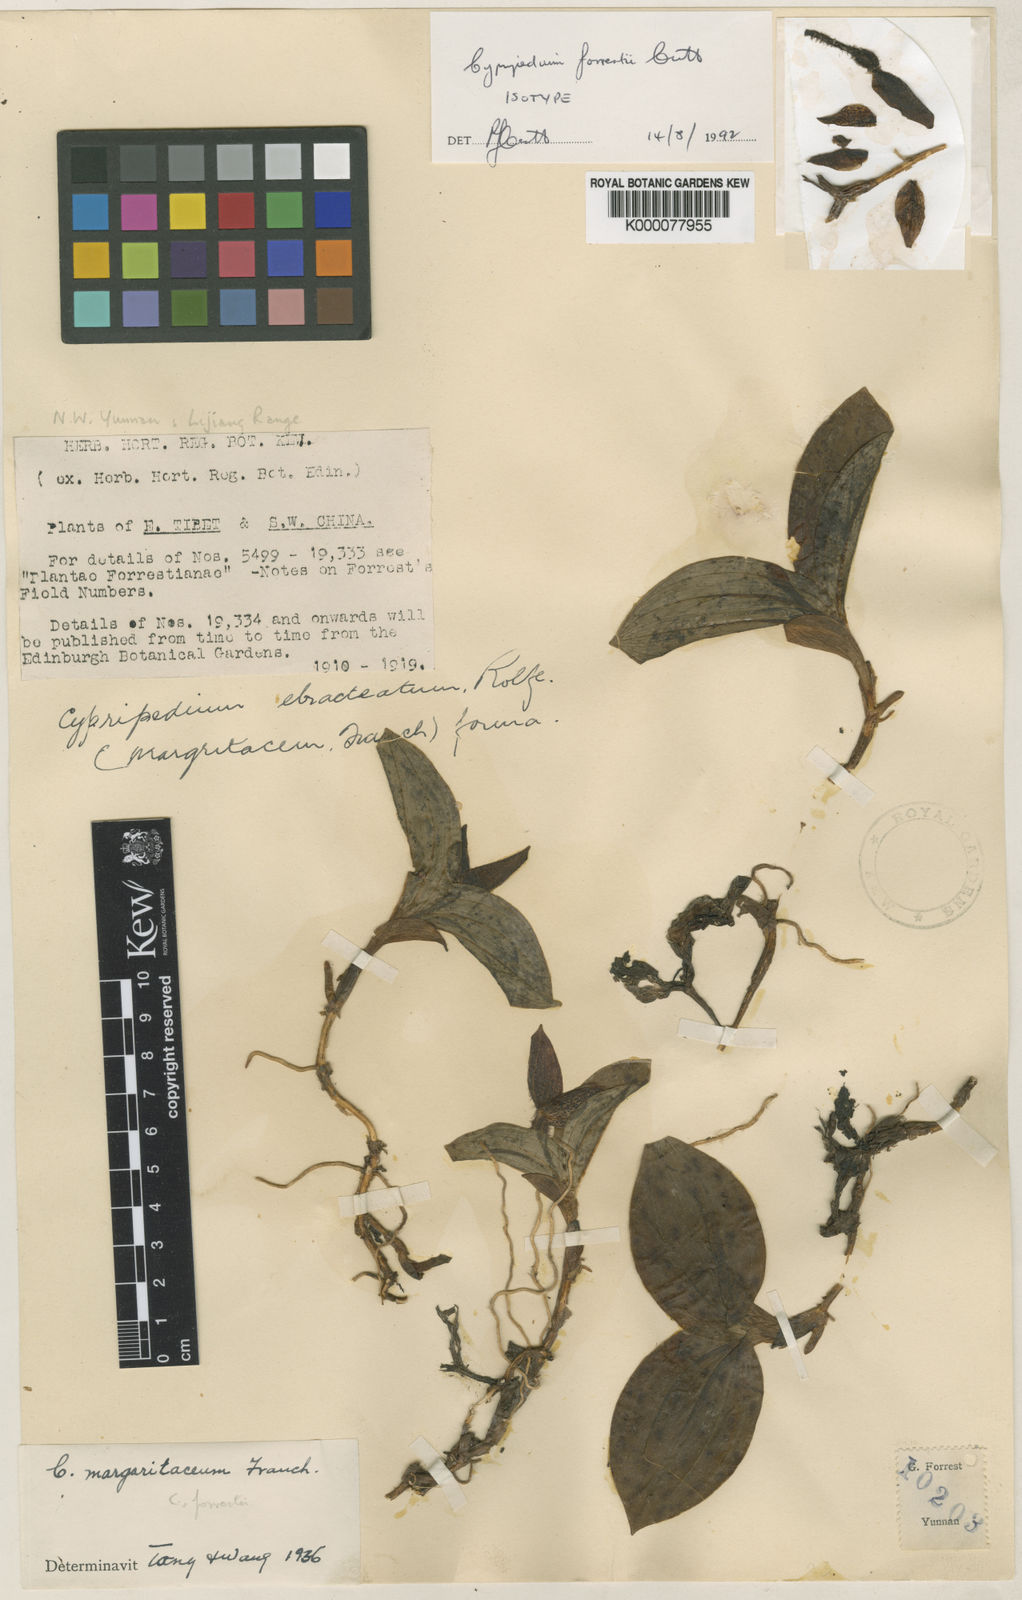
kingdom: Plantae
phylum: Tracheophyta
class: Liliopsida
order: Asparagales
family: Orchidaceae
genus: Cypripedium
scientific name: Cypripedium forrestii
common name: Forrest's cypripedium
